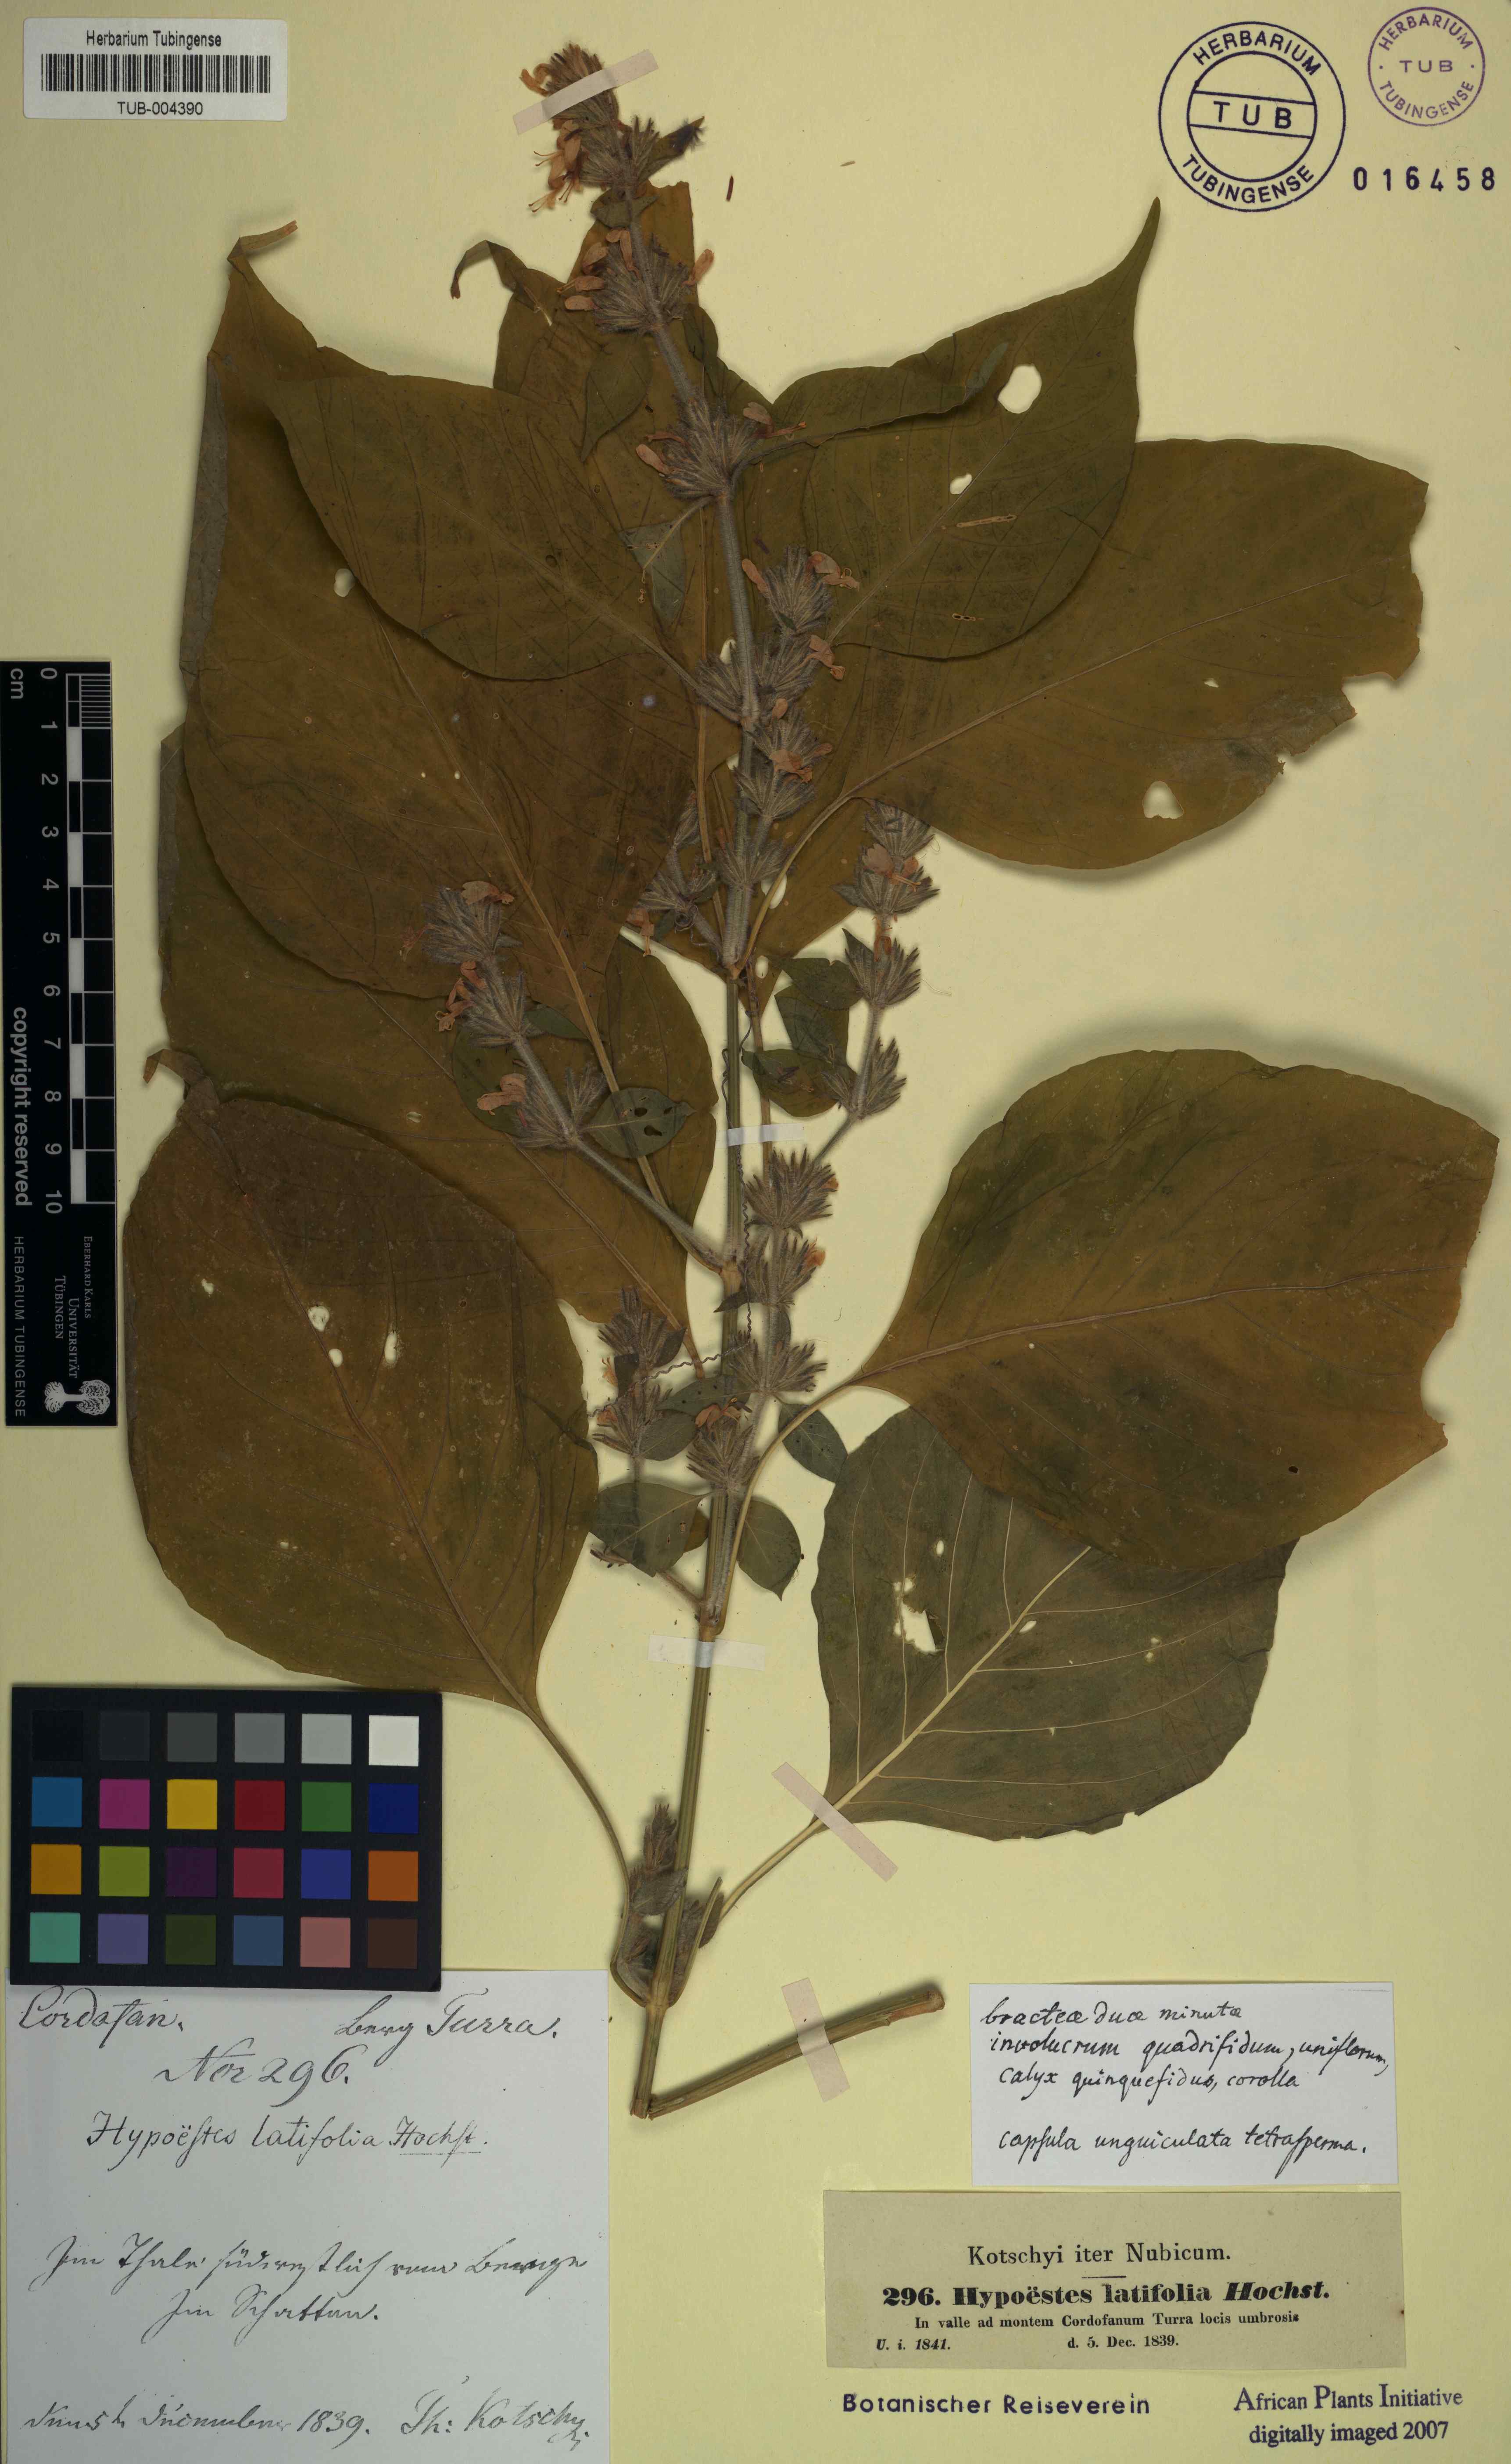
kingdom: Plantae
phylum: Tracheophyta
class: Magnoliopsida
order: Lamiales
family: Acanthaceae
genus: Hypoestes
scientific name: Hypoestes forskaolii
